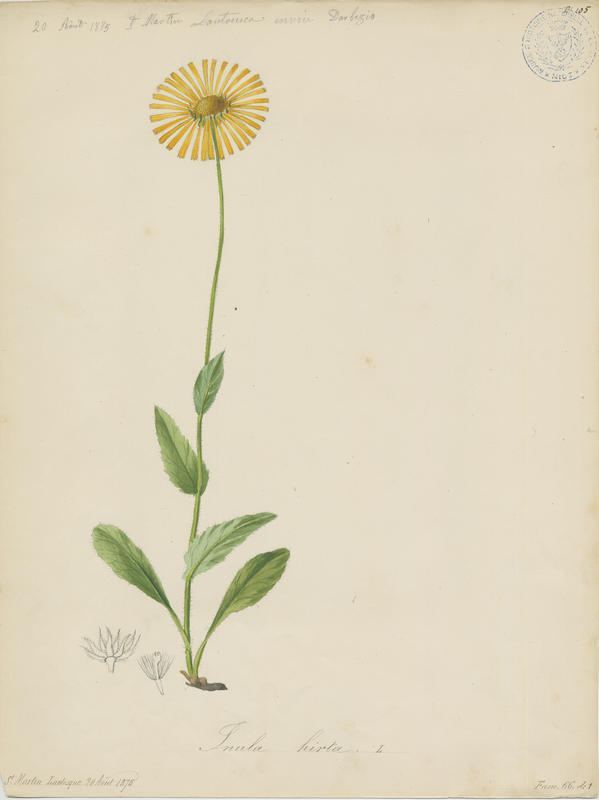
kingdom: Plantae
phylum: Tracheophyta
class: Magnoliopsida
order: Asterales
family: Asteraceae
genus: Pentanema
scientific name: Pentanema hirtum
